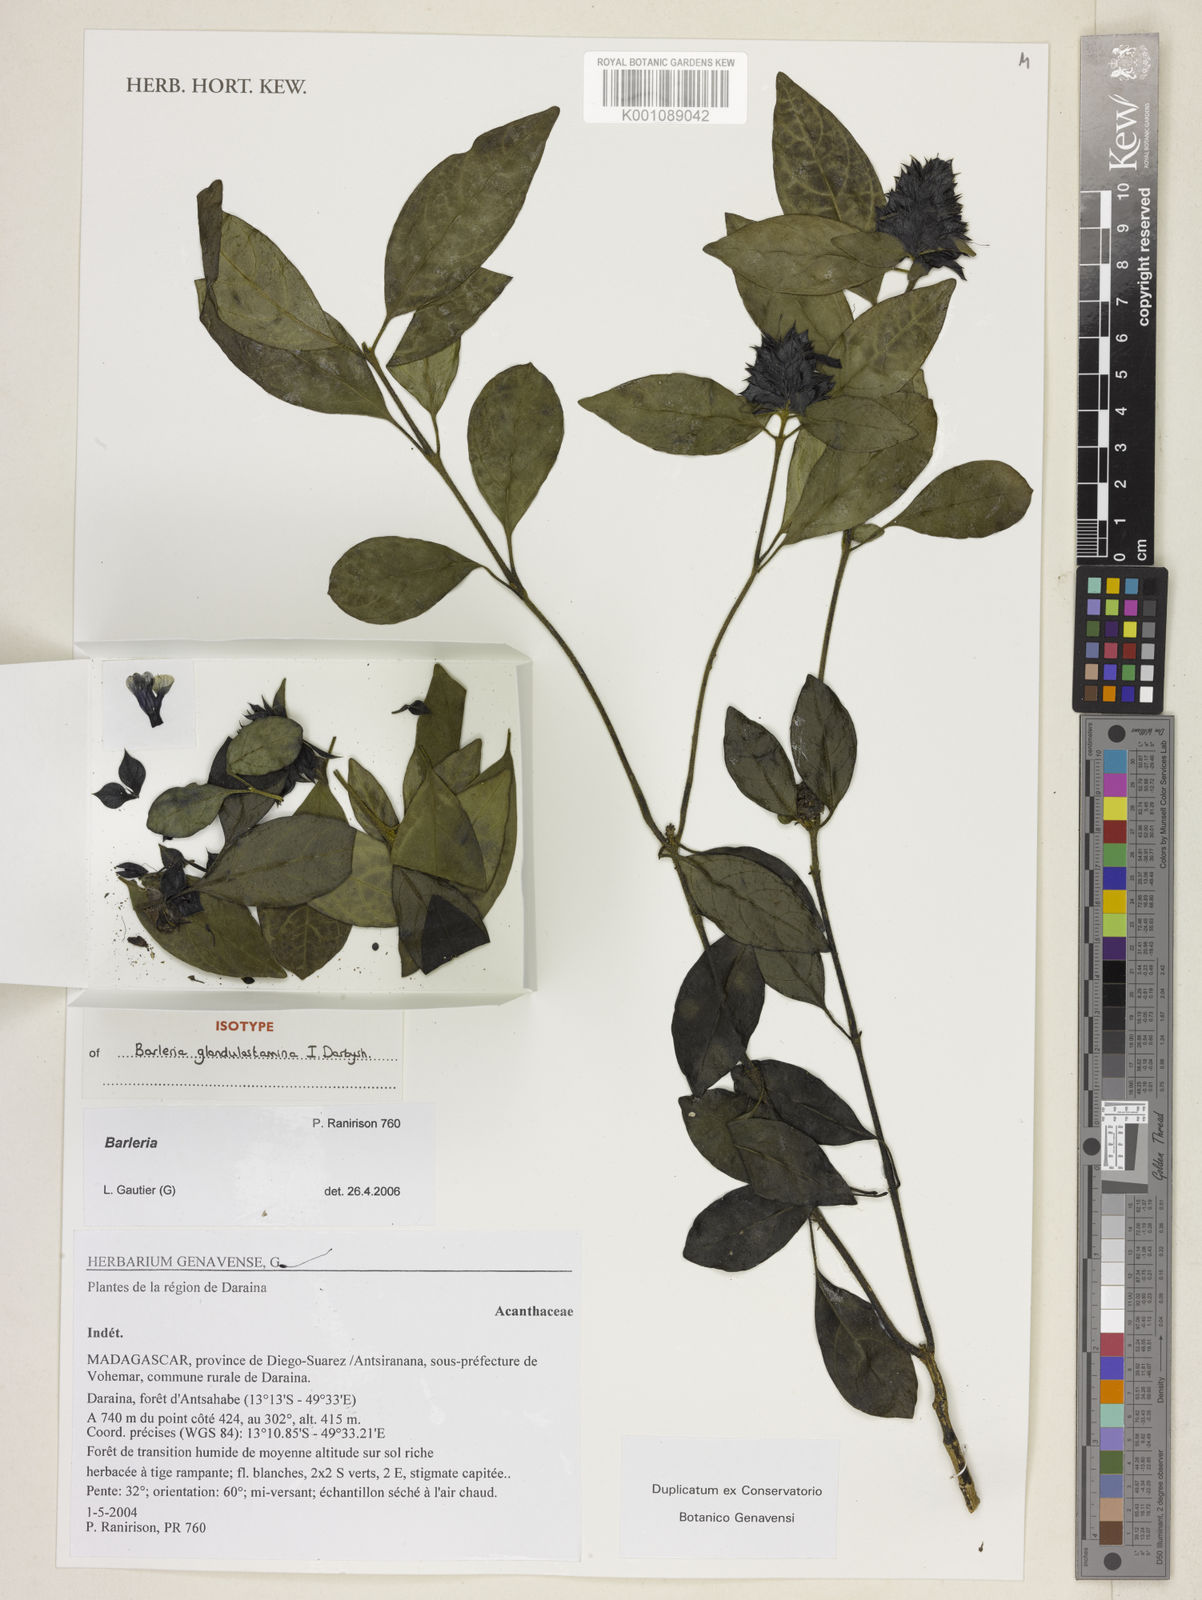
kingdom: Plantae
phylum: Tracheophyta
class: Magnoliopsida
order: Lamiales
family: Acanthaceae
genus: Barleria
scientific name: Barleria glandulostamina
